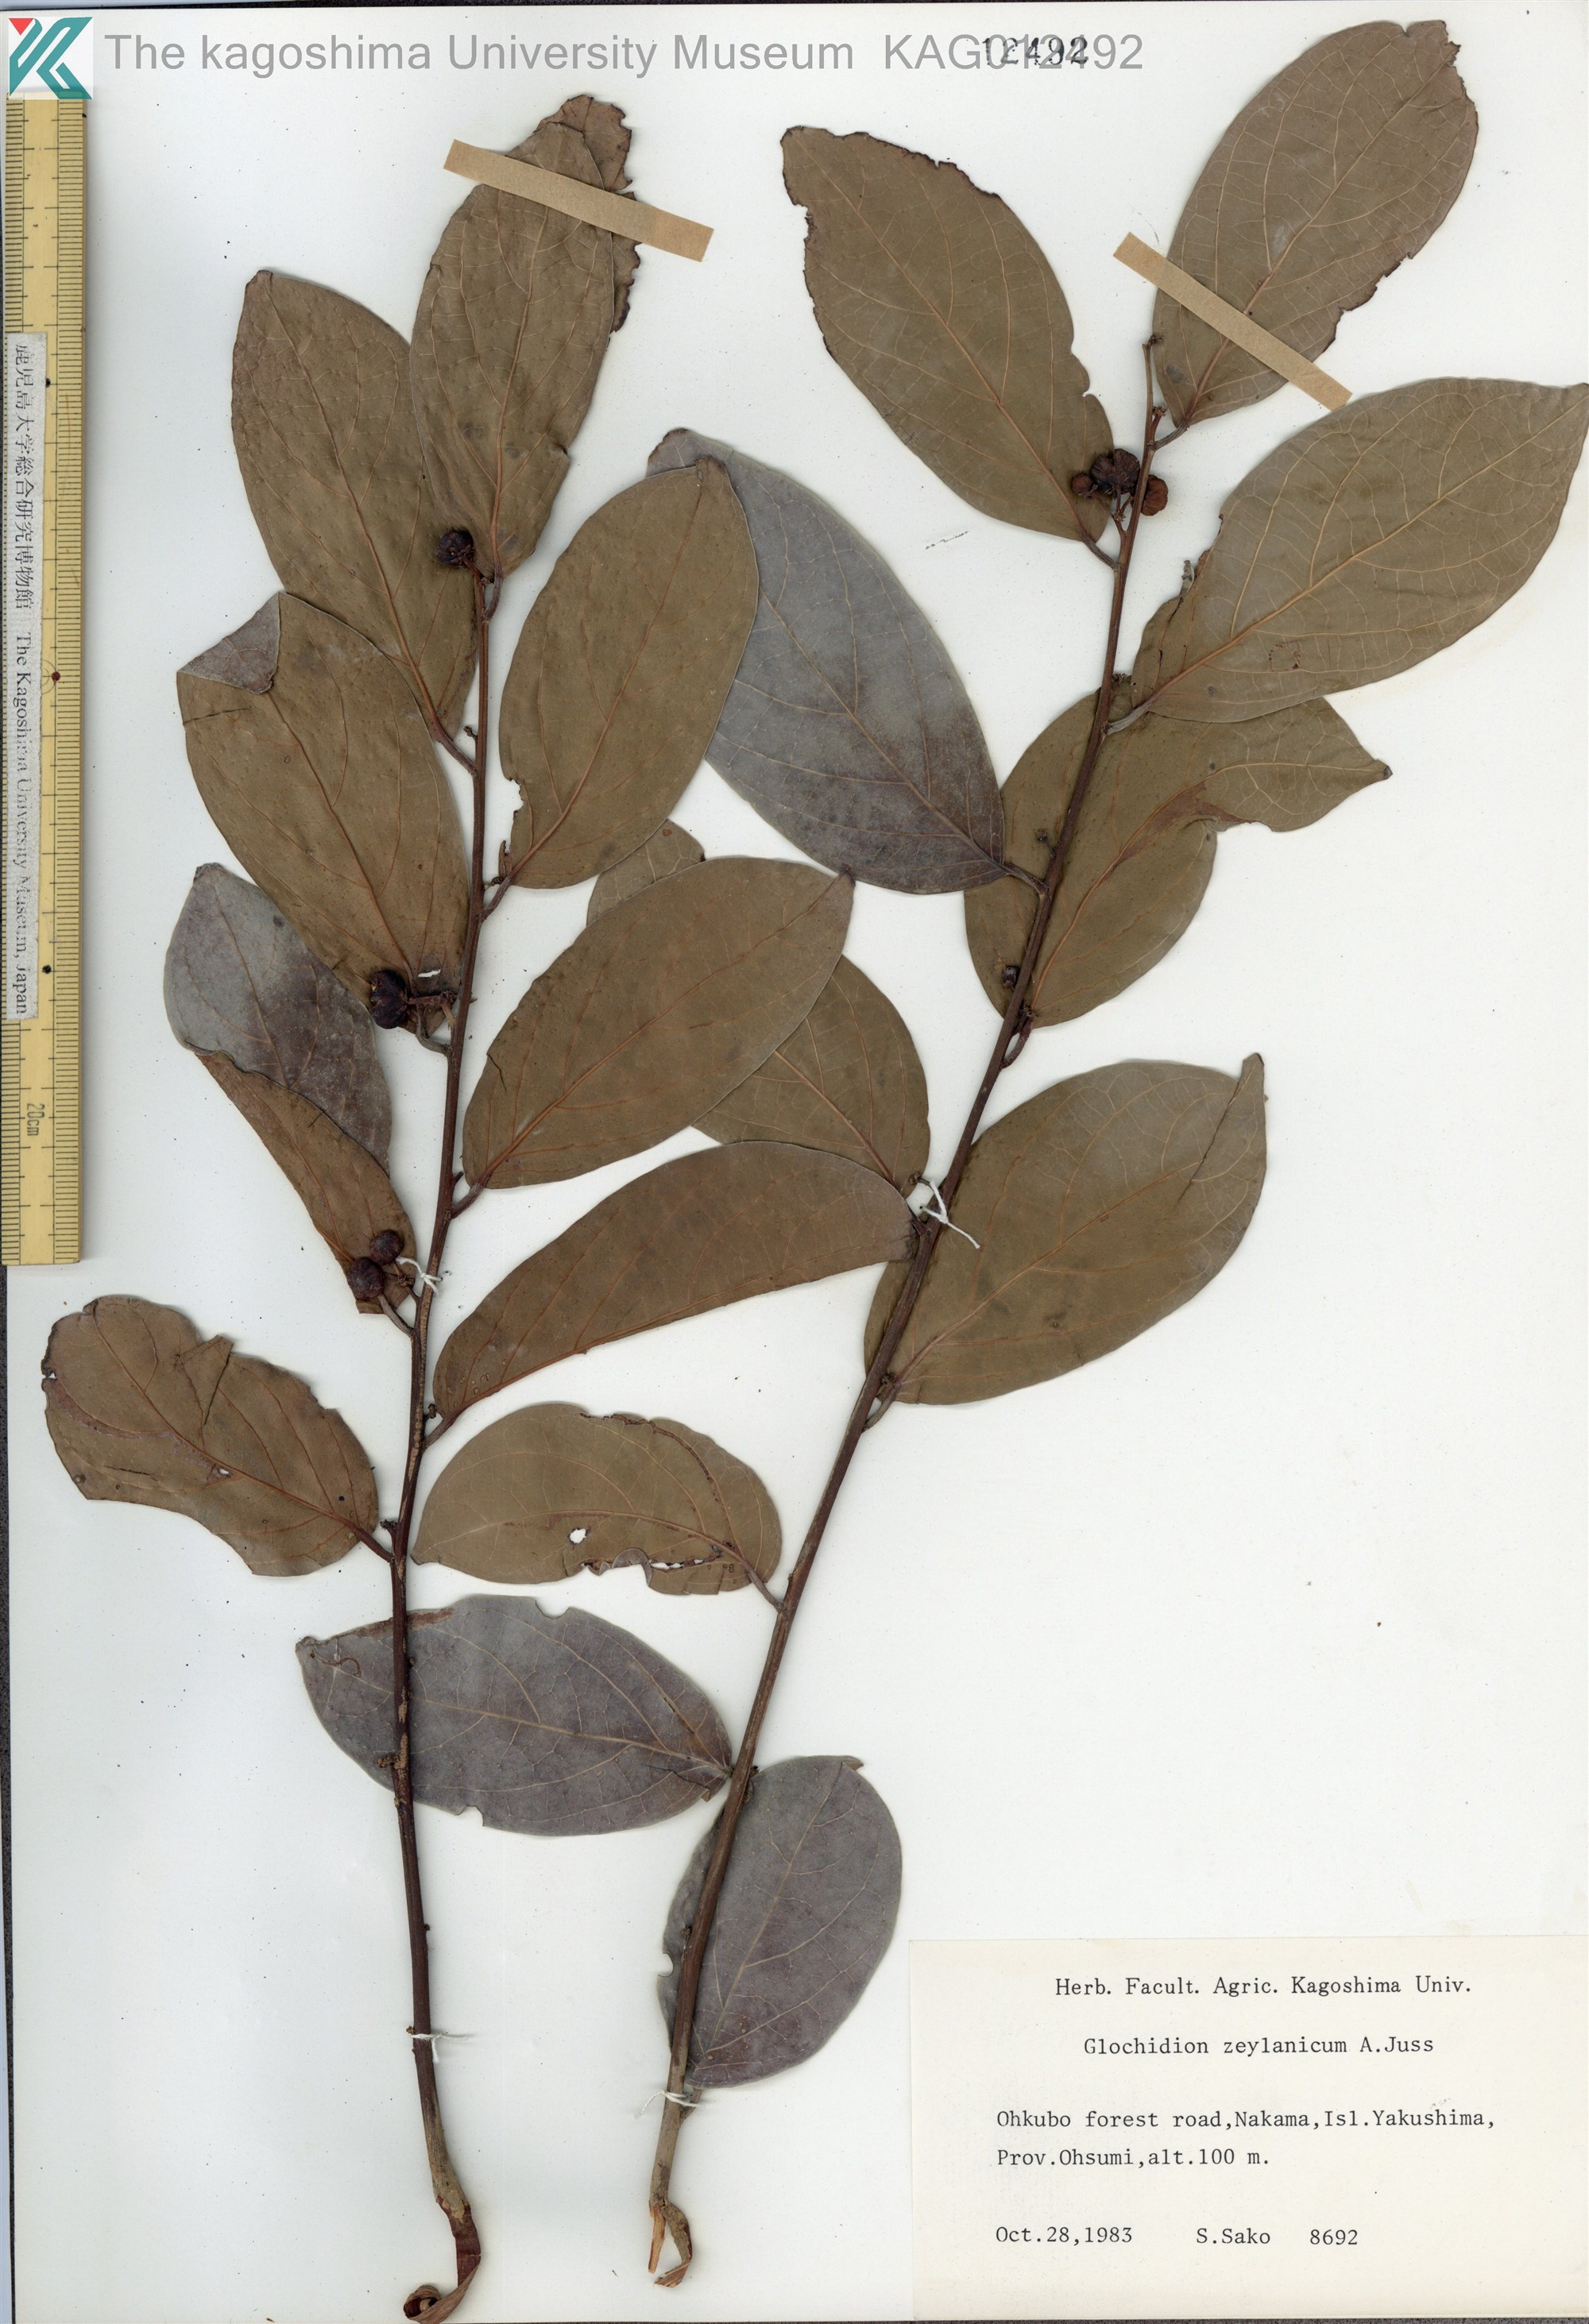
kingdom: Plantae
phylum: Tracheophyta
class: Magnoliopsida
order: Malpighiales
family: Phyllanthaceae
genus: Glochidion
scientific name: Glochidion zeylanicum
